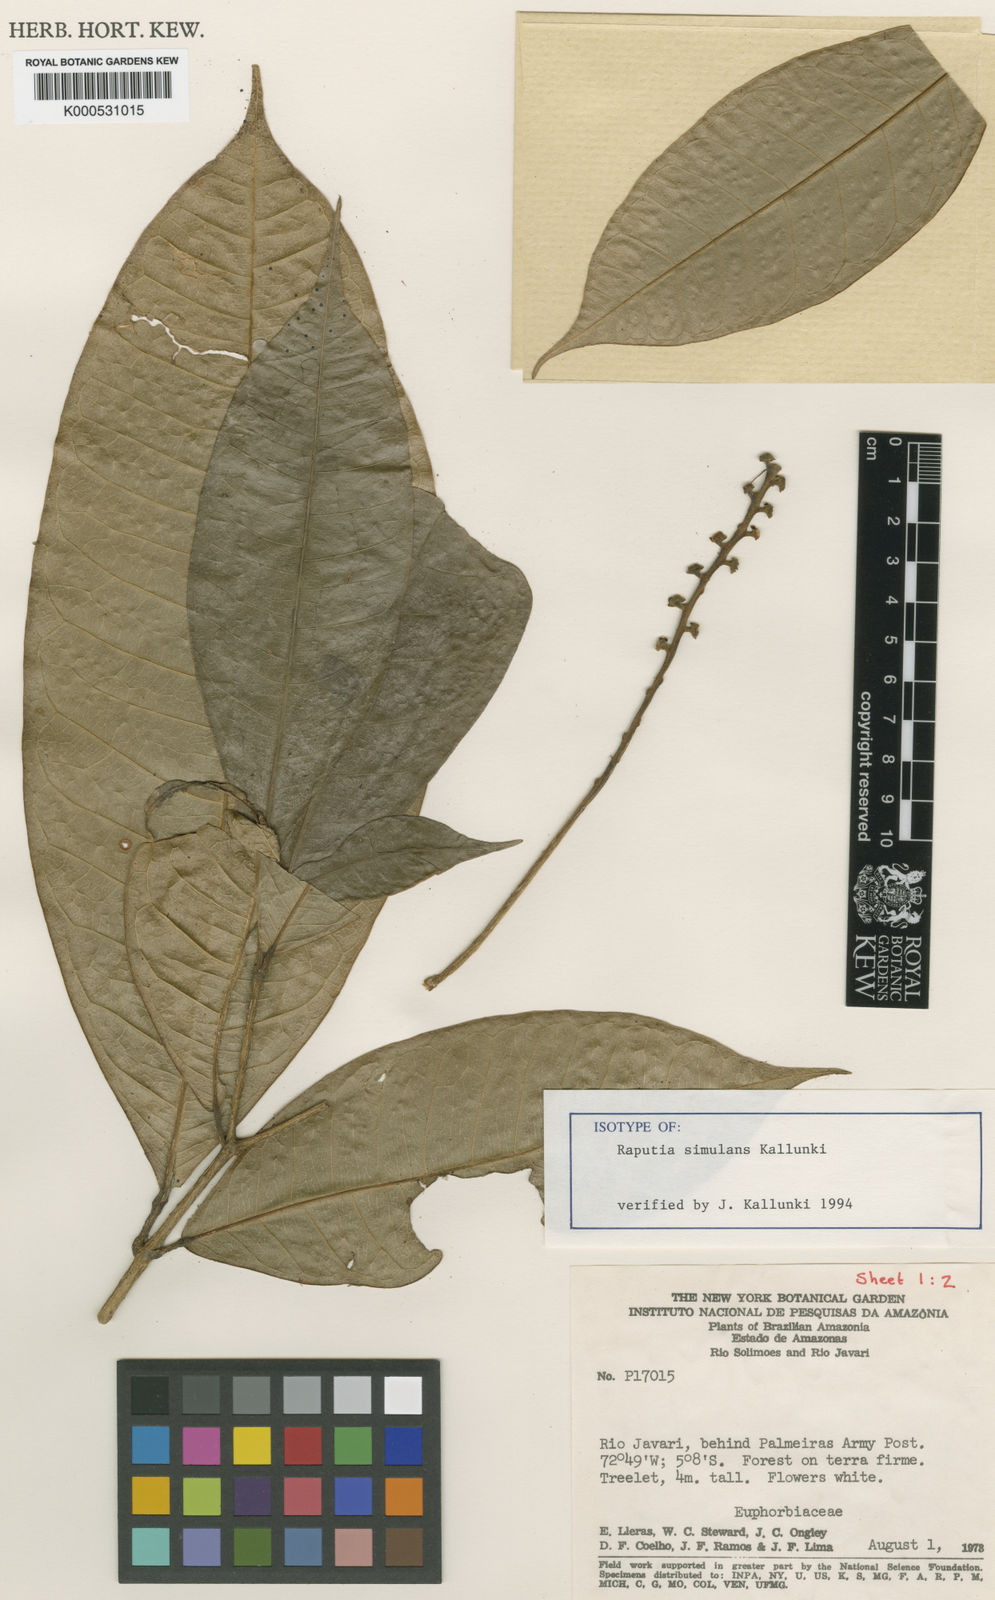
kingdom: Plantae
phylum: Tracheophyta
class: Magnoliopsida
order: Sapindales
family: Rutaceae
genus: Raputia
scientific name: Raputia megalantha
